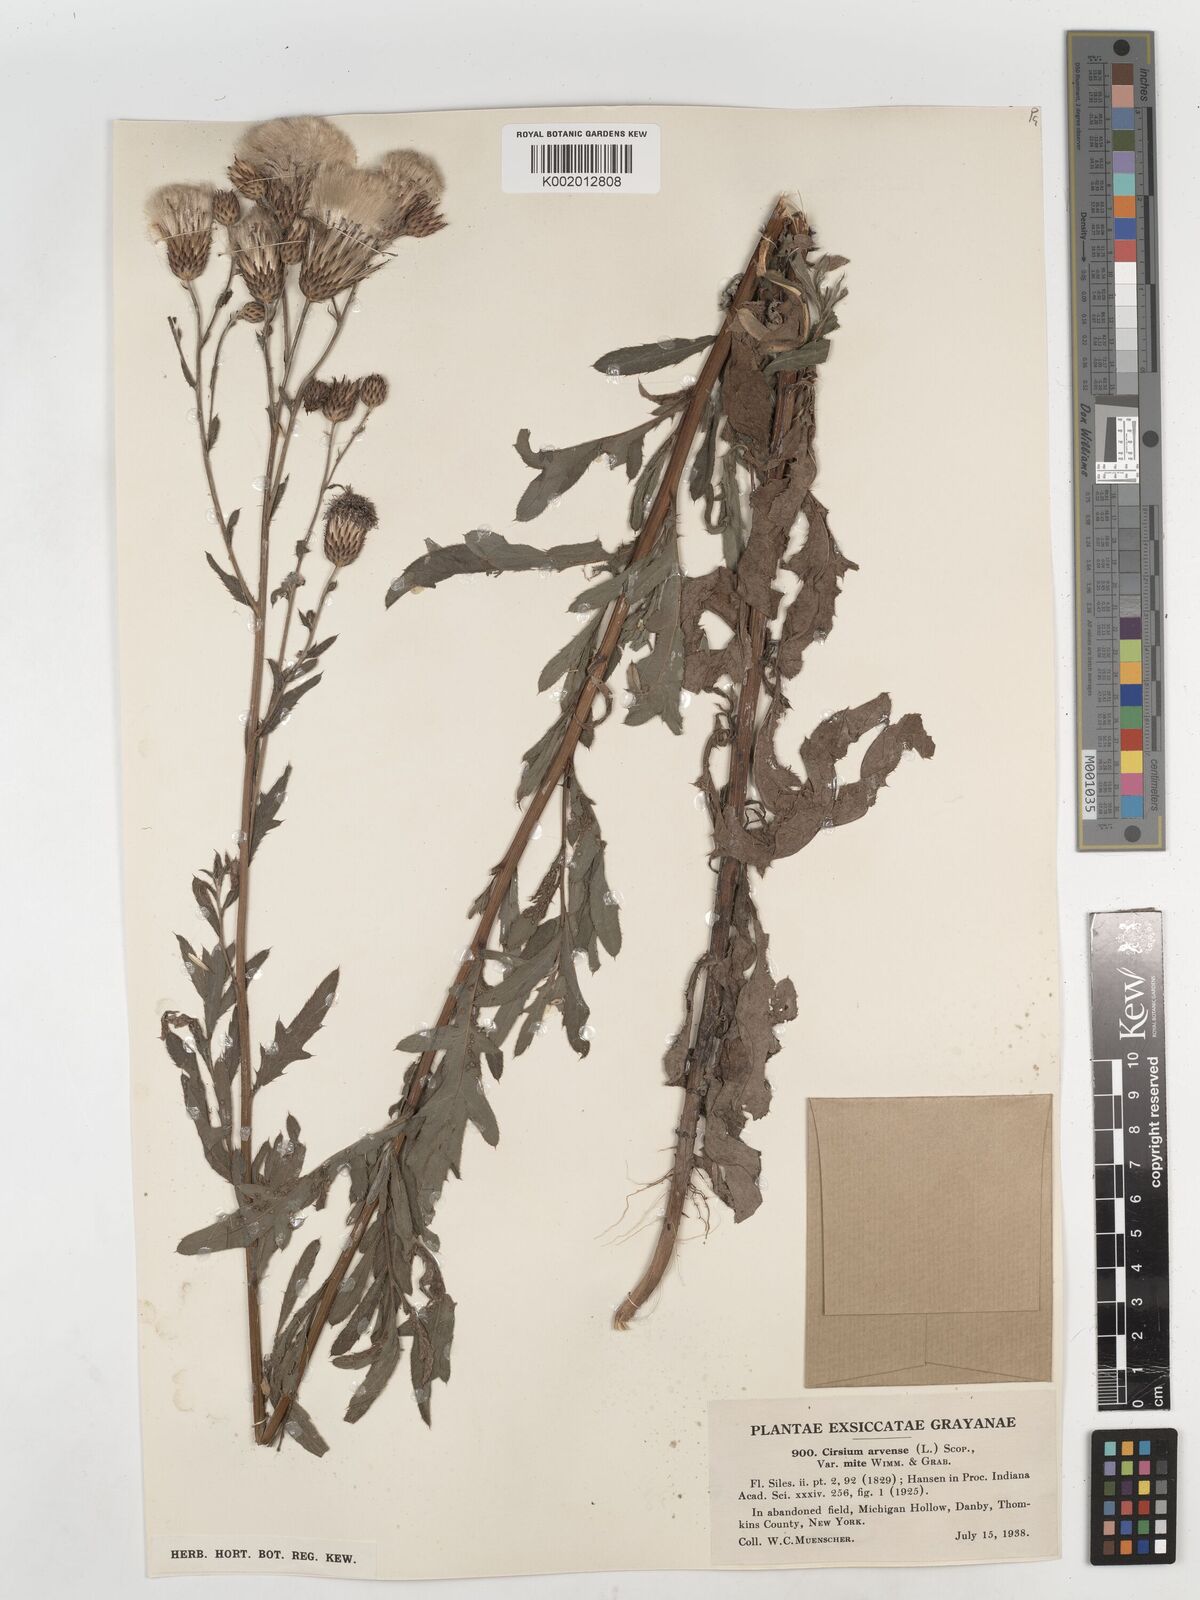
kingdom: Plantae
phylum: Tracheophyta
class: Magnoliopsida
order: Asterales
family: Asteraceae
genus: Cirsium
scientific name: Cirsium arvense
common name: Creeping thistle
